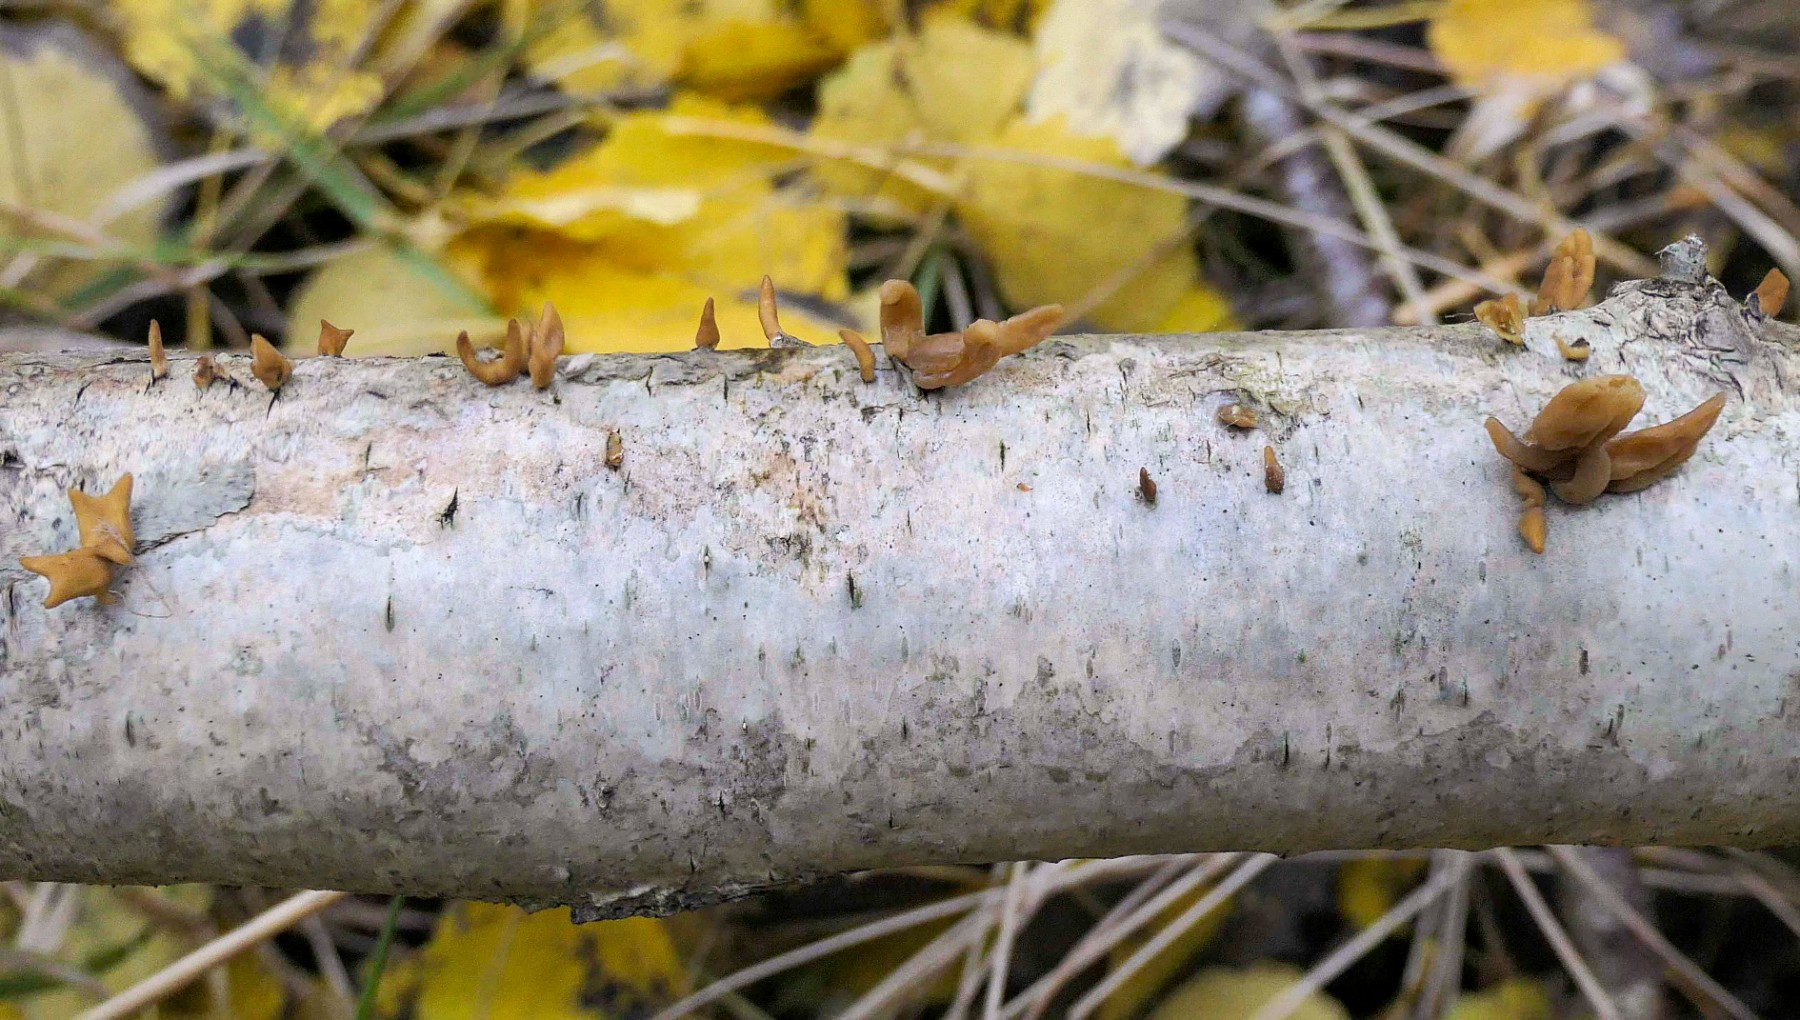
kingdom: Fungi
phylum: Basidiomycota
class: Agaricomycetes
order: Agaricales
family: Typhulaceae
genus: Typhula
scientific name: Typhula contorta
